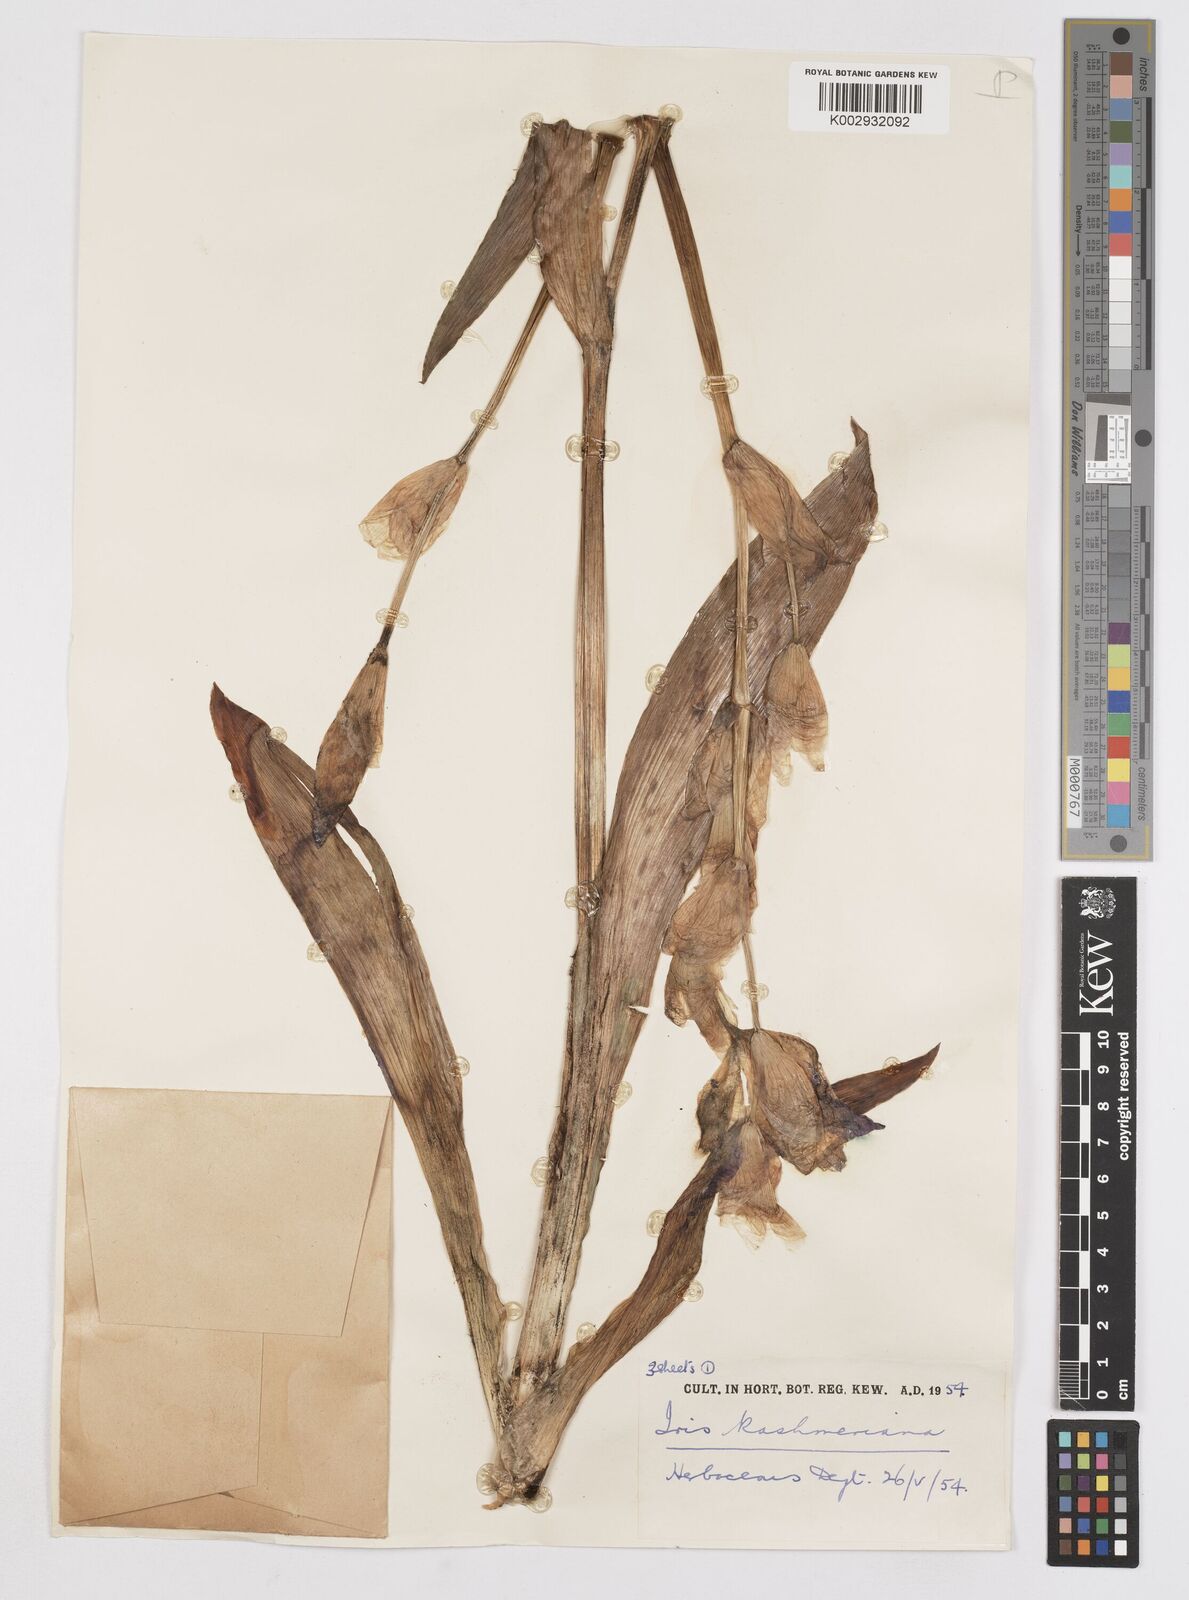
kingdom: Plantae
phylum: Tracheophyta
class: Liliopsida
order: Asparagales
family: Iridaceae
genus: Iris
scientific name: Iris kashmiriana
